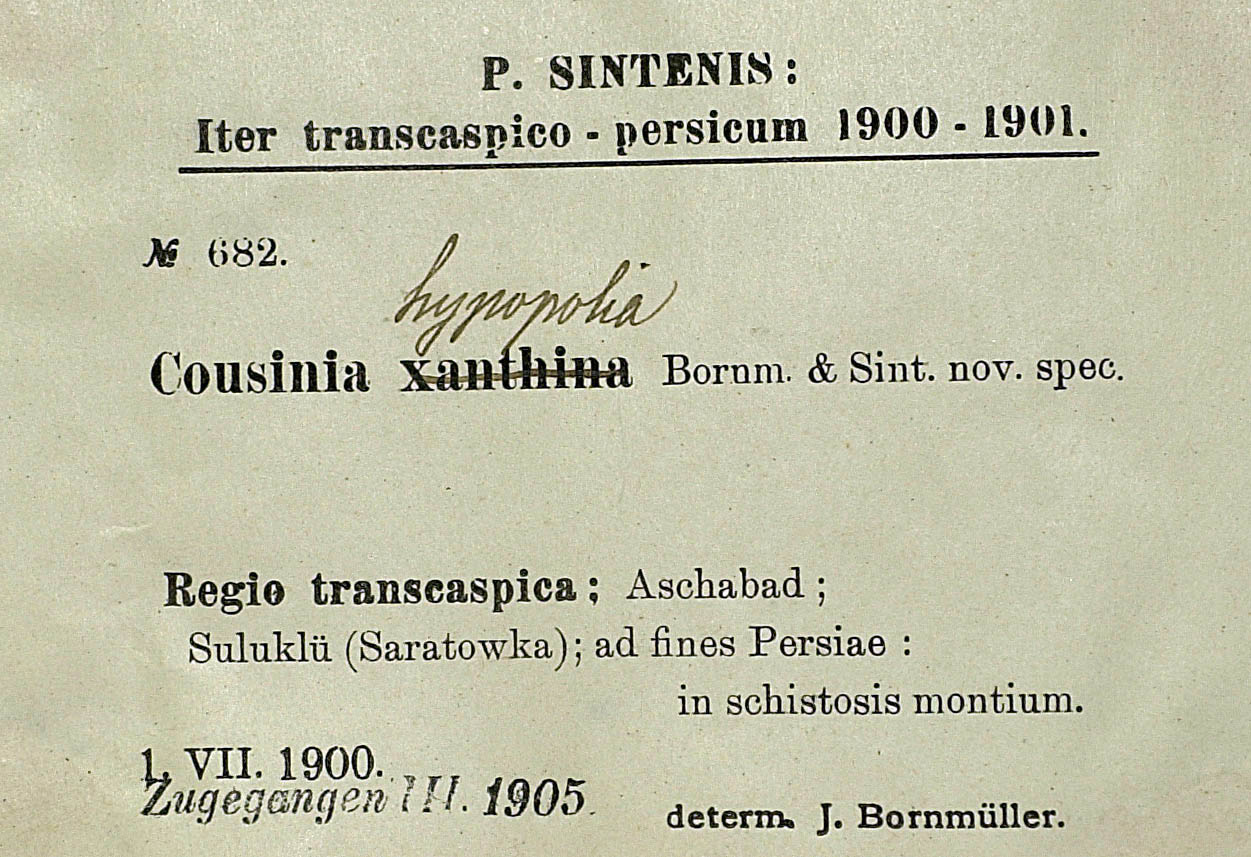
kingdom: Plantae
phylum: Tracheophyta
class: Magnoliopsida
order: Asterales
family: Asteraceae
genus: Cousinia
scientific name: Cousinia hypopolia
